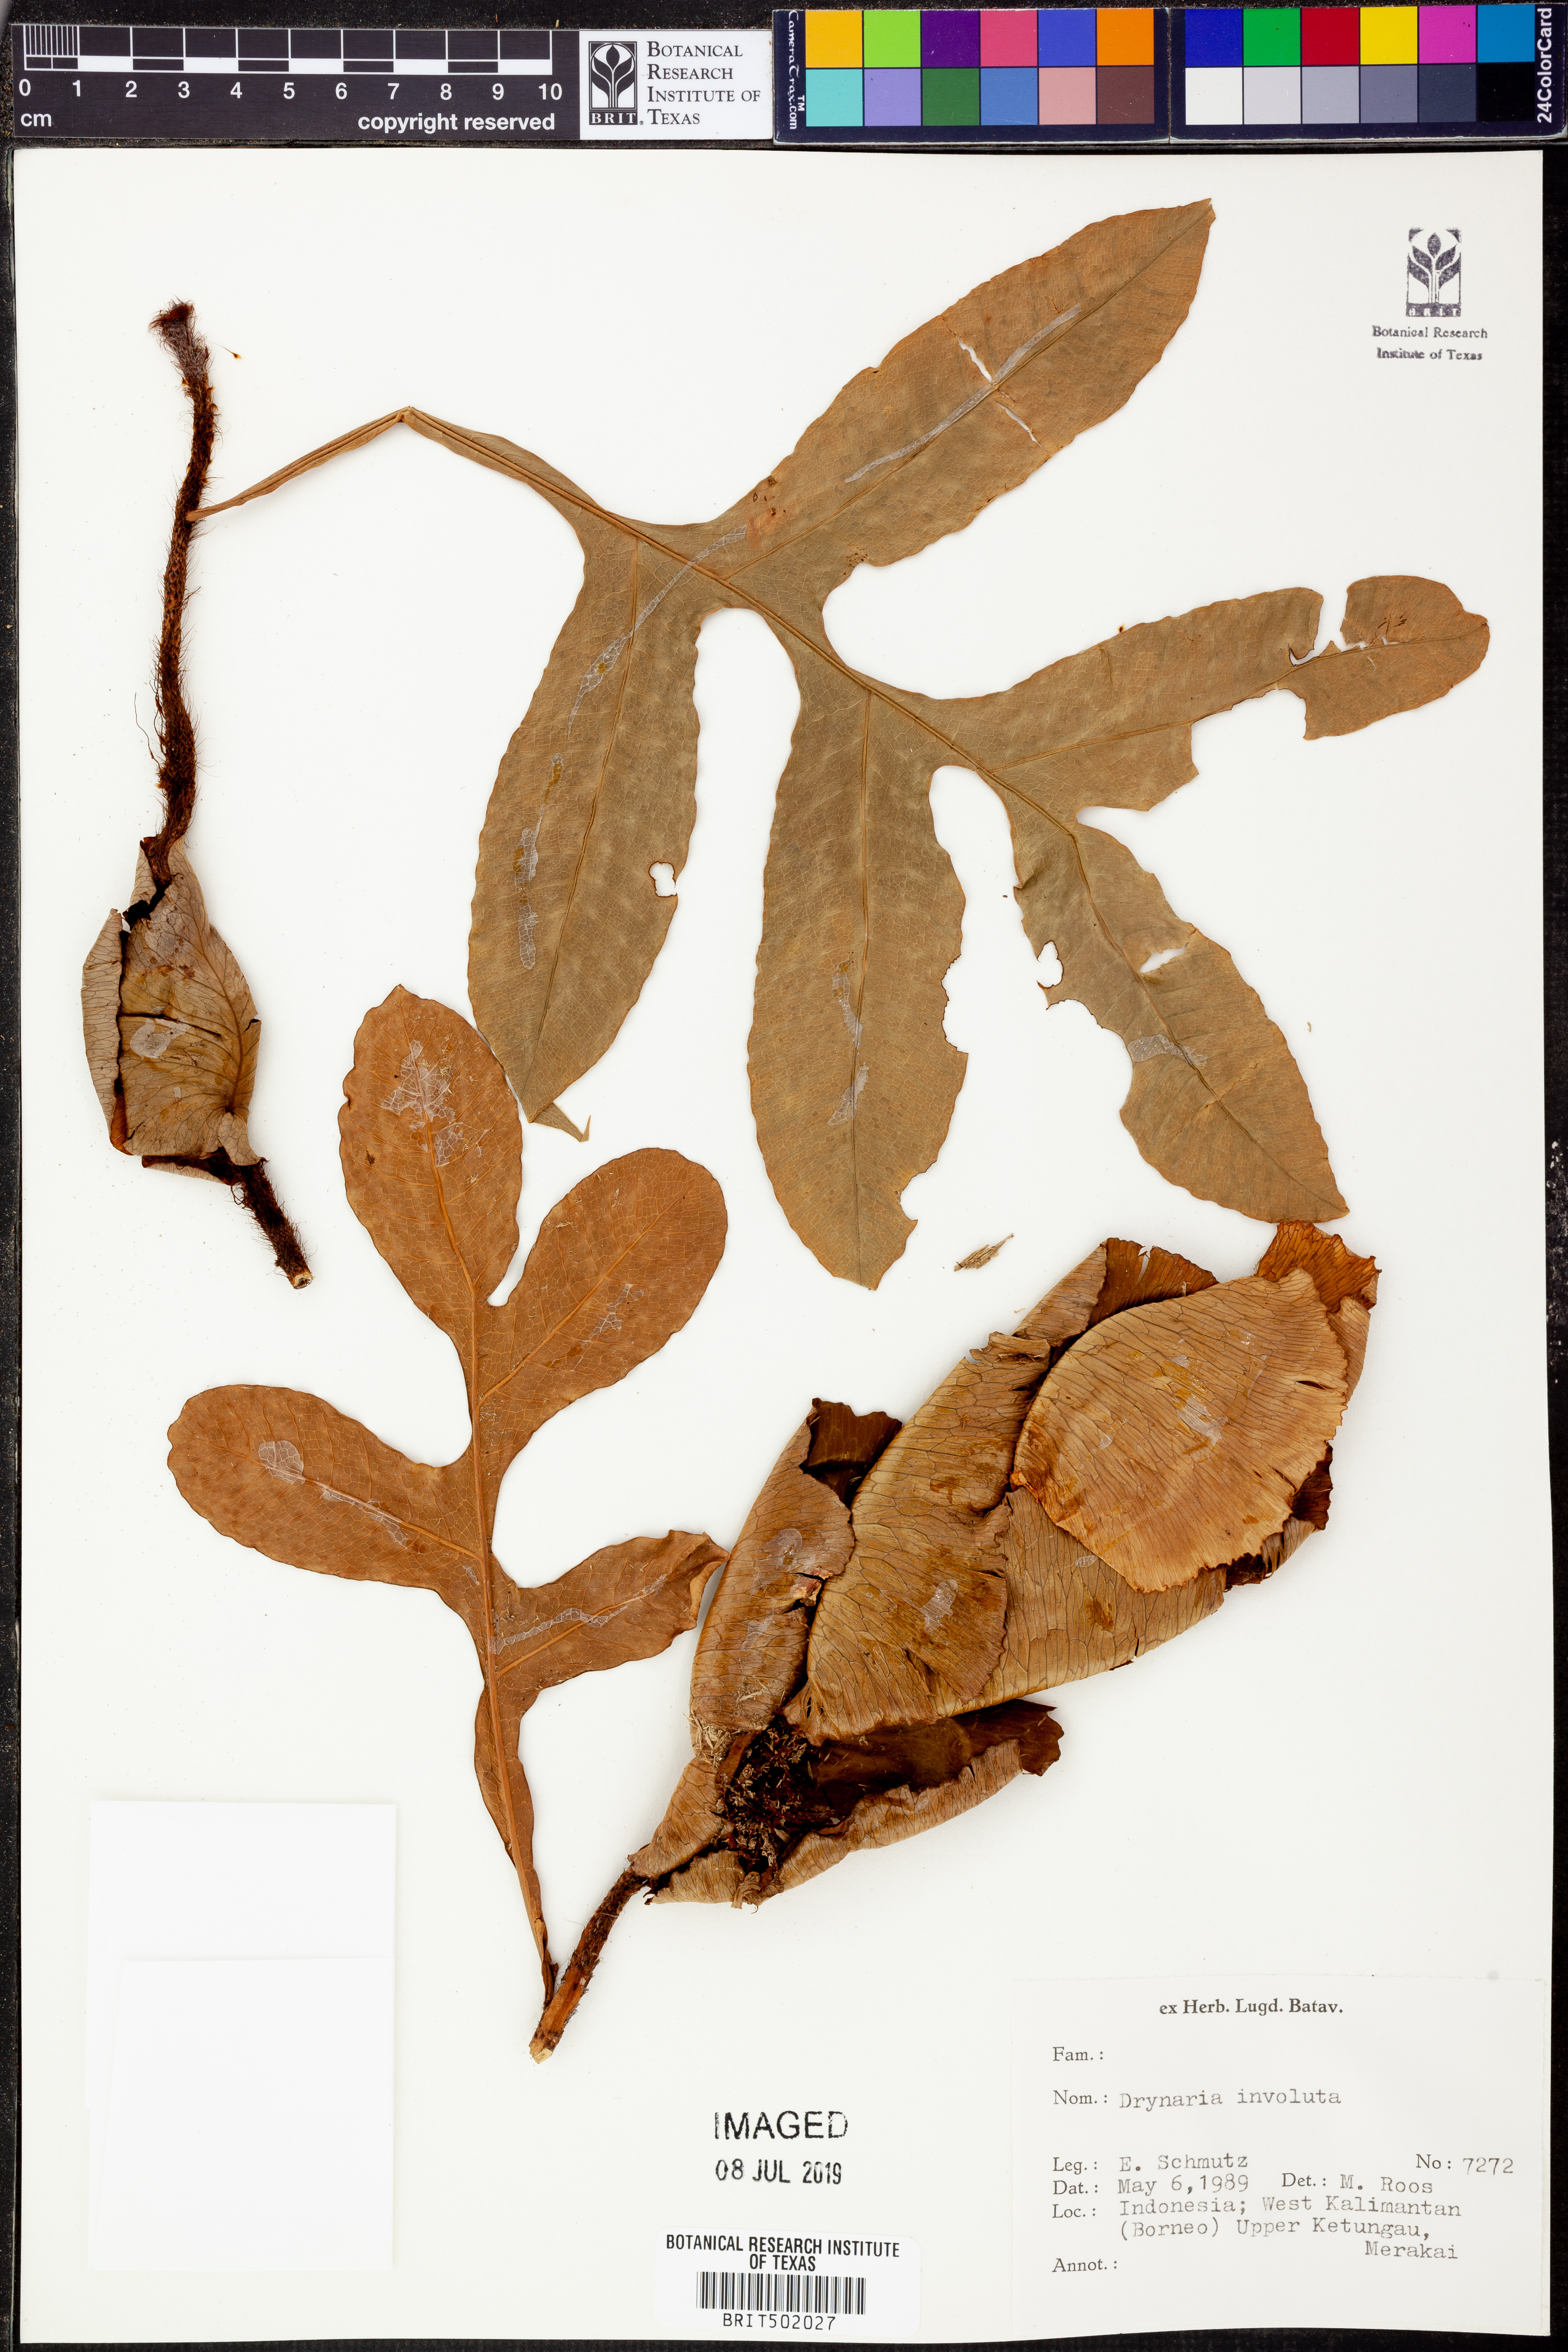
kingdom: Plantae
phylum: Tracheophyta
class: Polypodiopsida
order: Polypodiales
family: Polypodiaceae
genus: Drynaria
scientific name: Drynaria involuta
